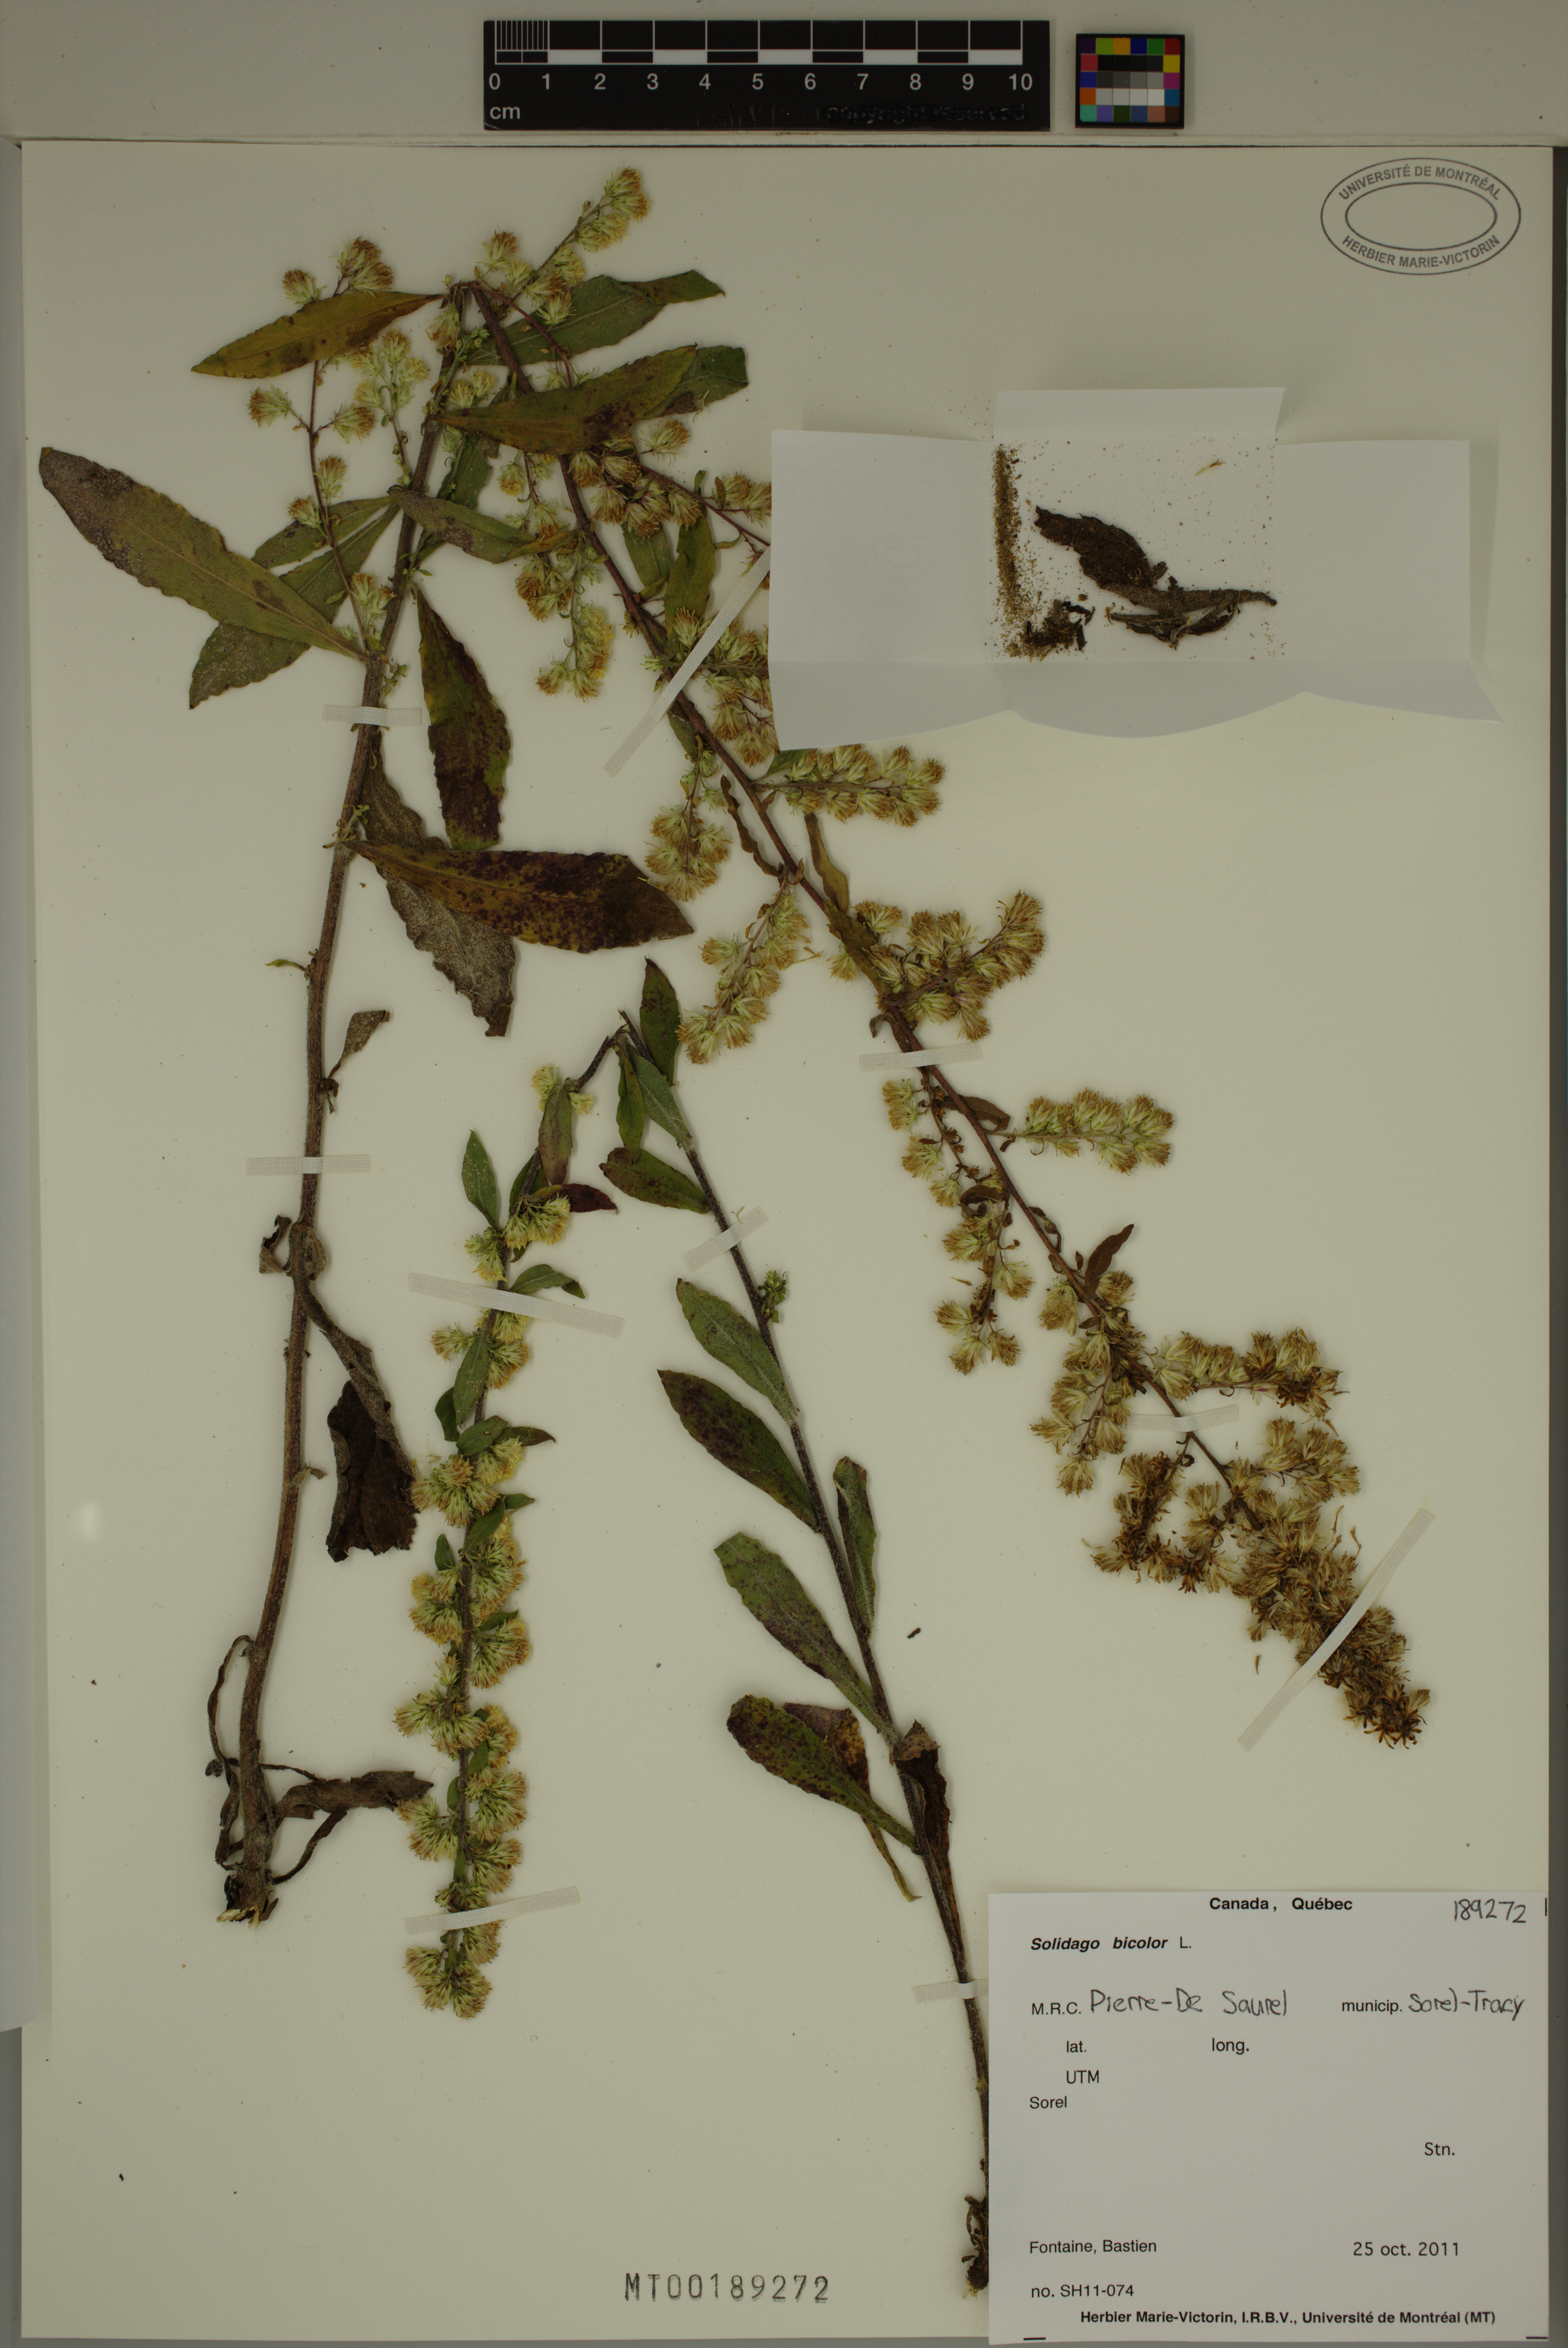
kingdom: Plantae
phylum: Tracheophyta
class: Magnoliopsida
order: Asterales
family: Asteraceae
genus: Solidago
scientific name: Solidago bicolor
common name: Silverrod
